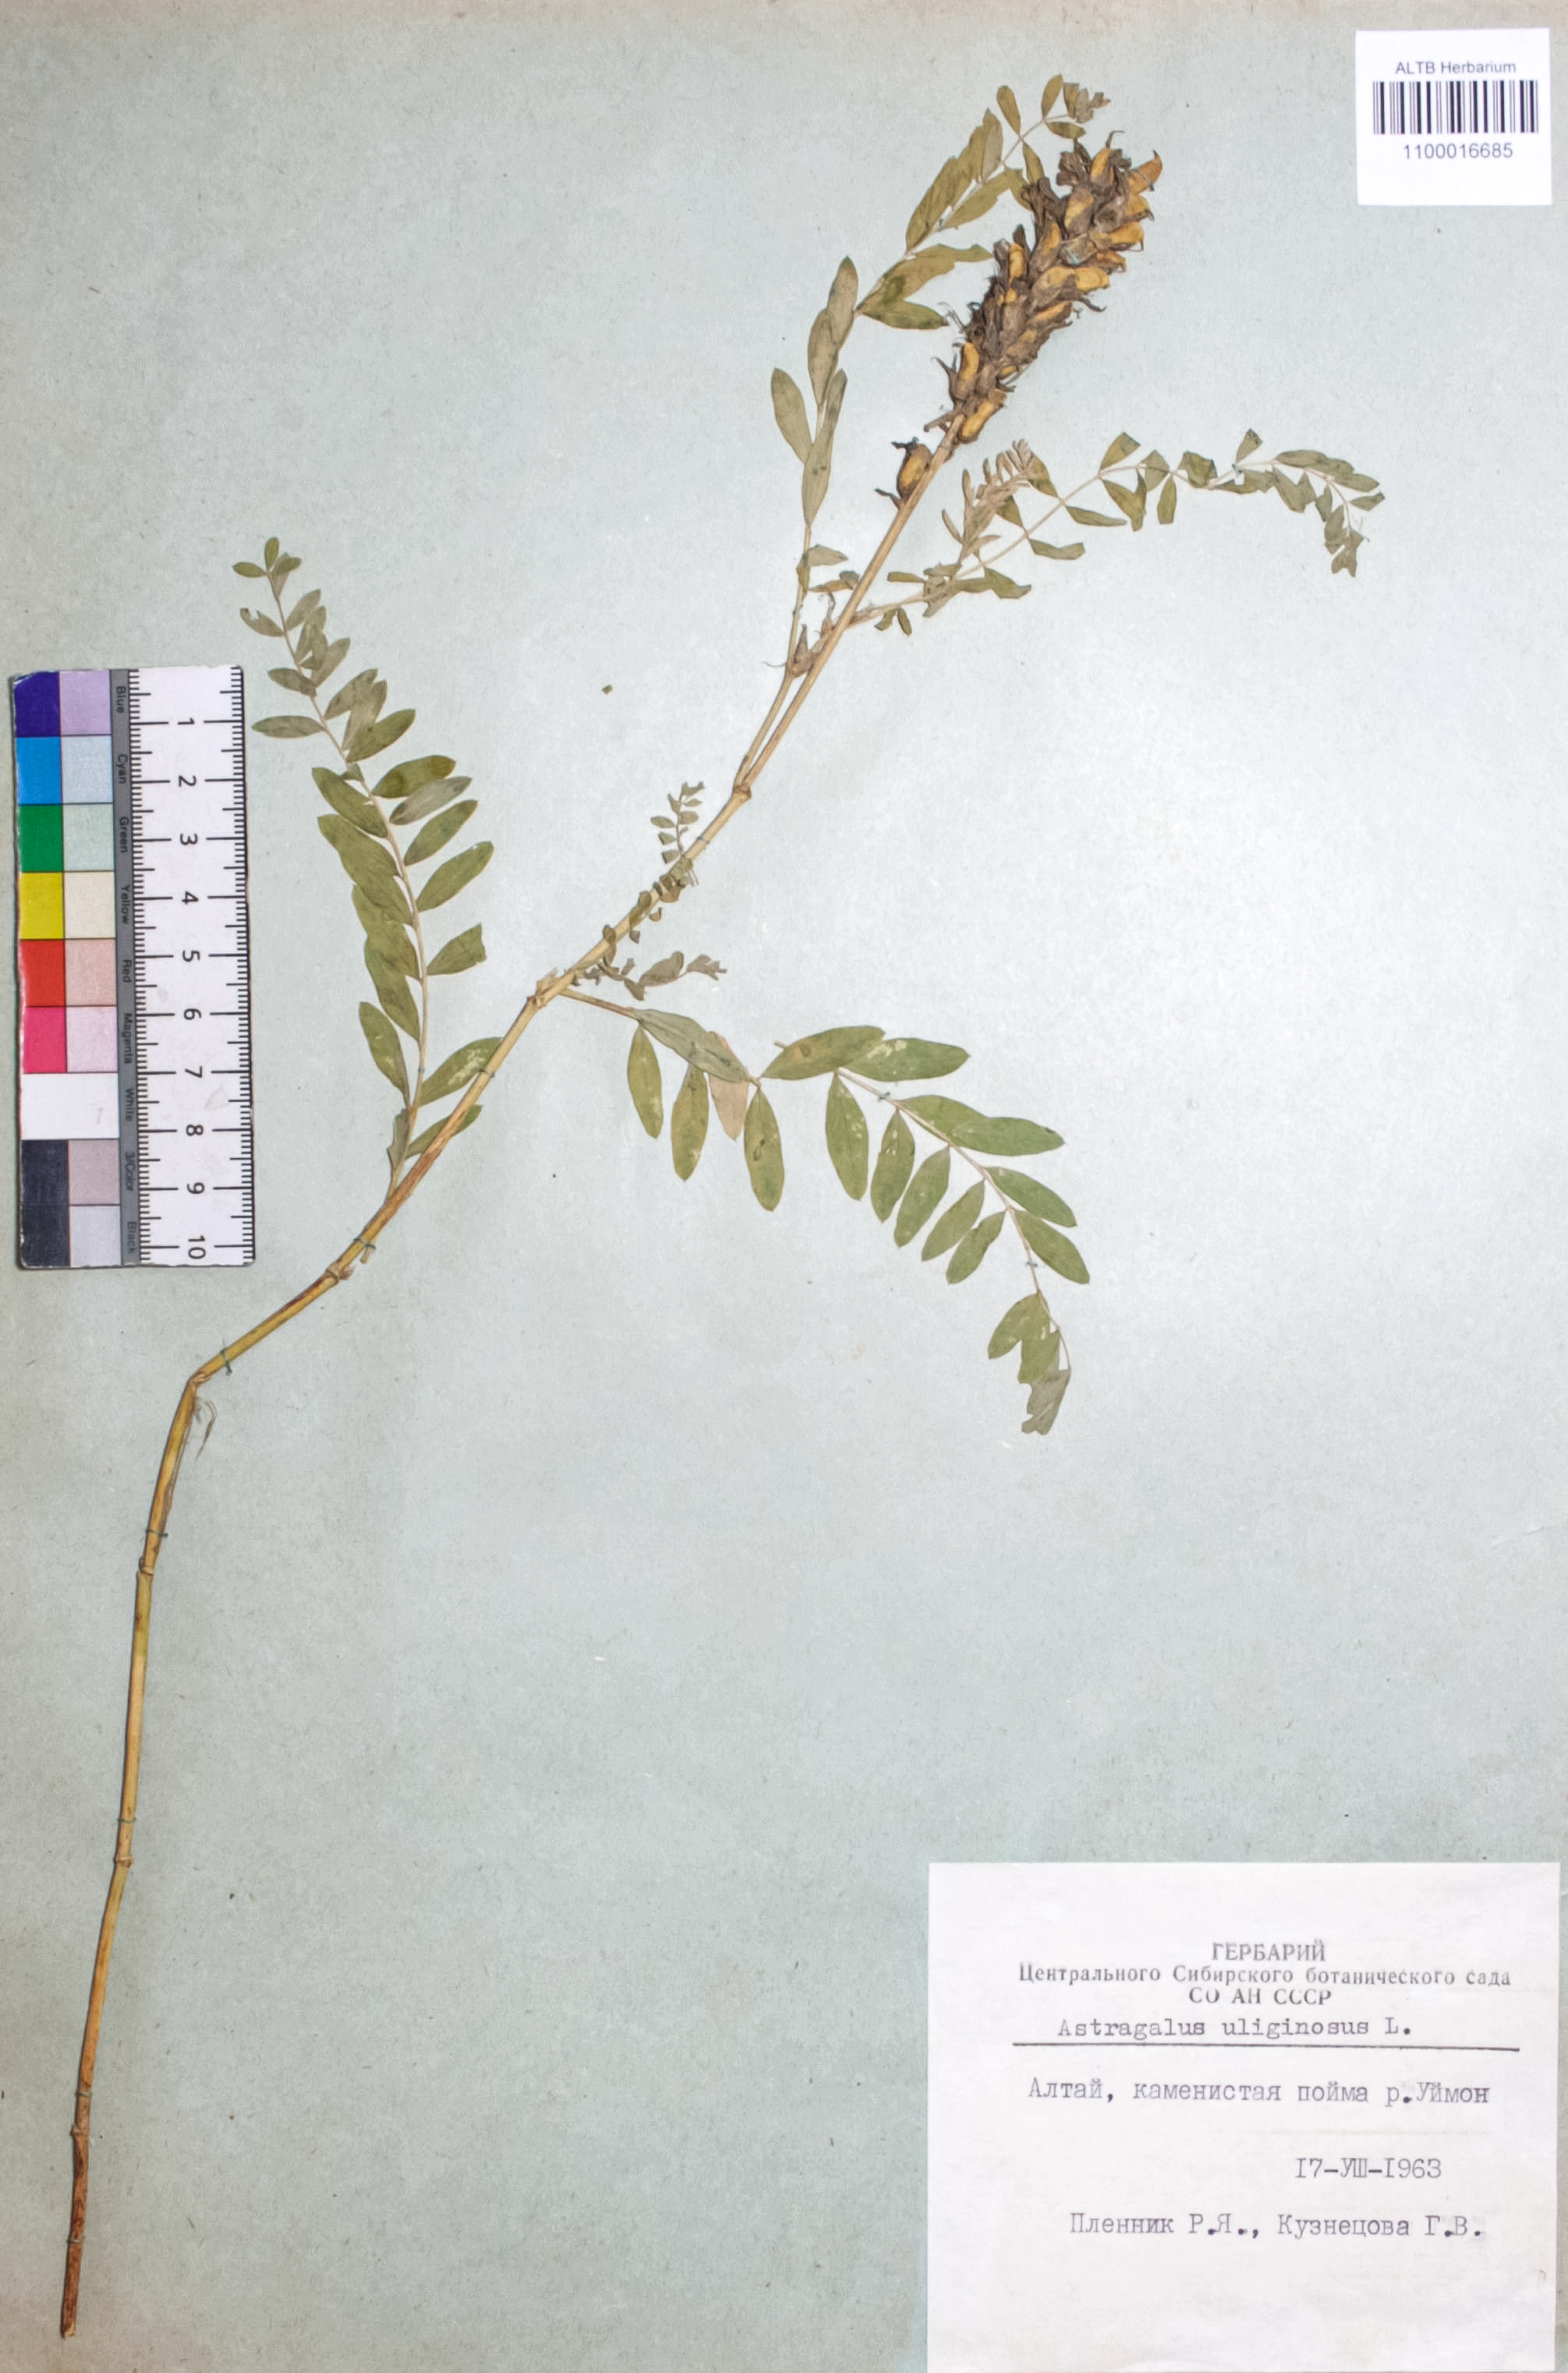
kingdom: Plantae
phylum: Tracheophyta
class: Magnoliopsida
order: Fabales
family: Fabaceae
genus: Astragalus
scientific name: Astragalus uliginosus
